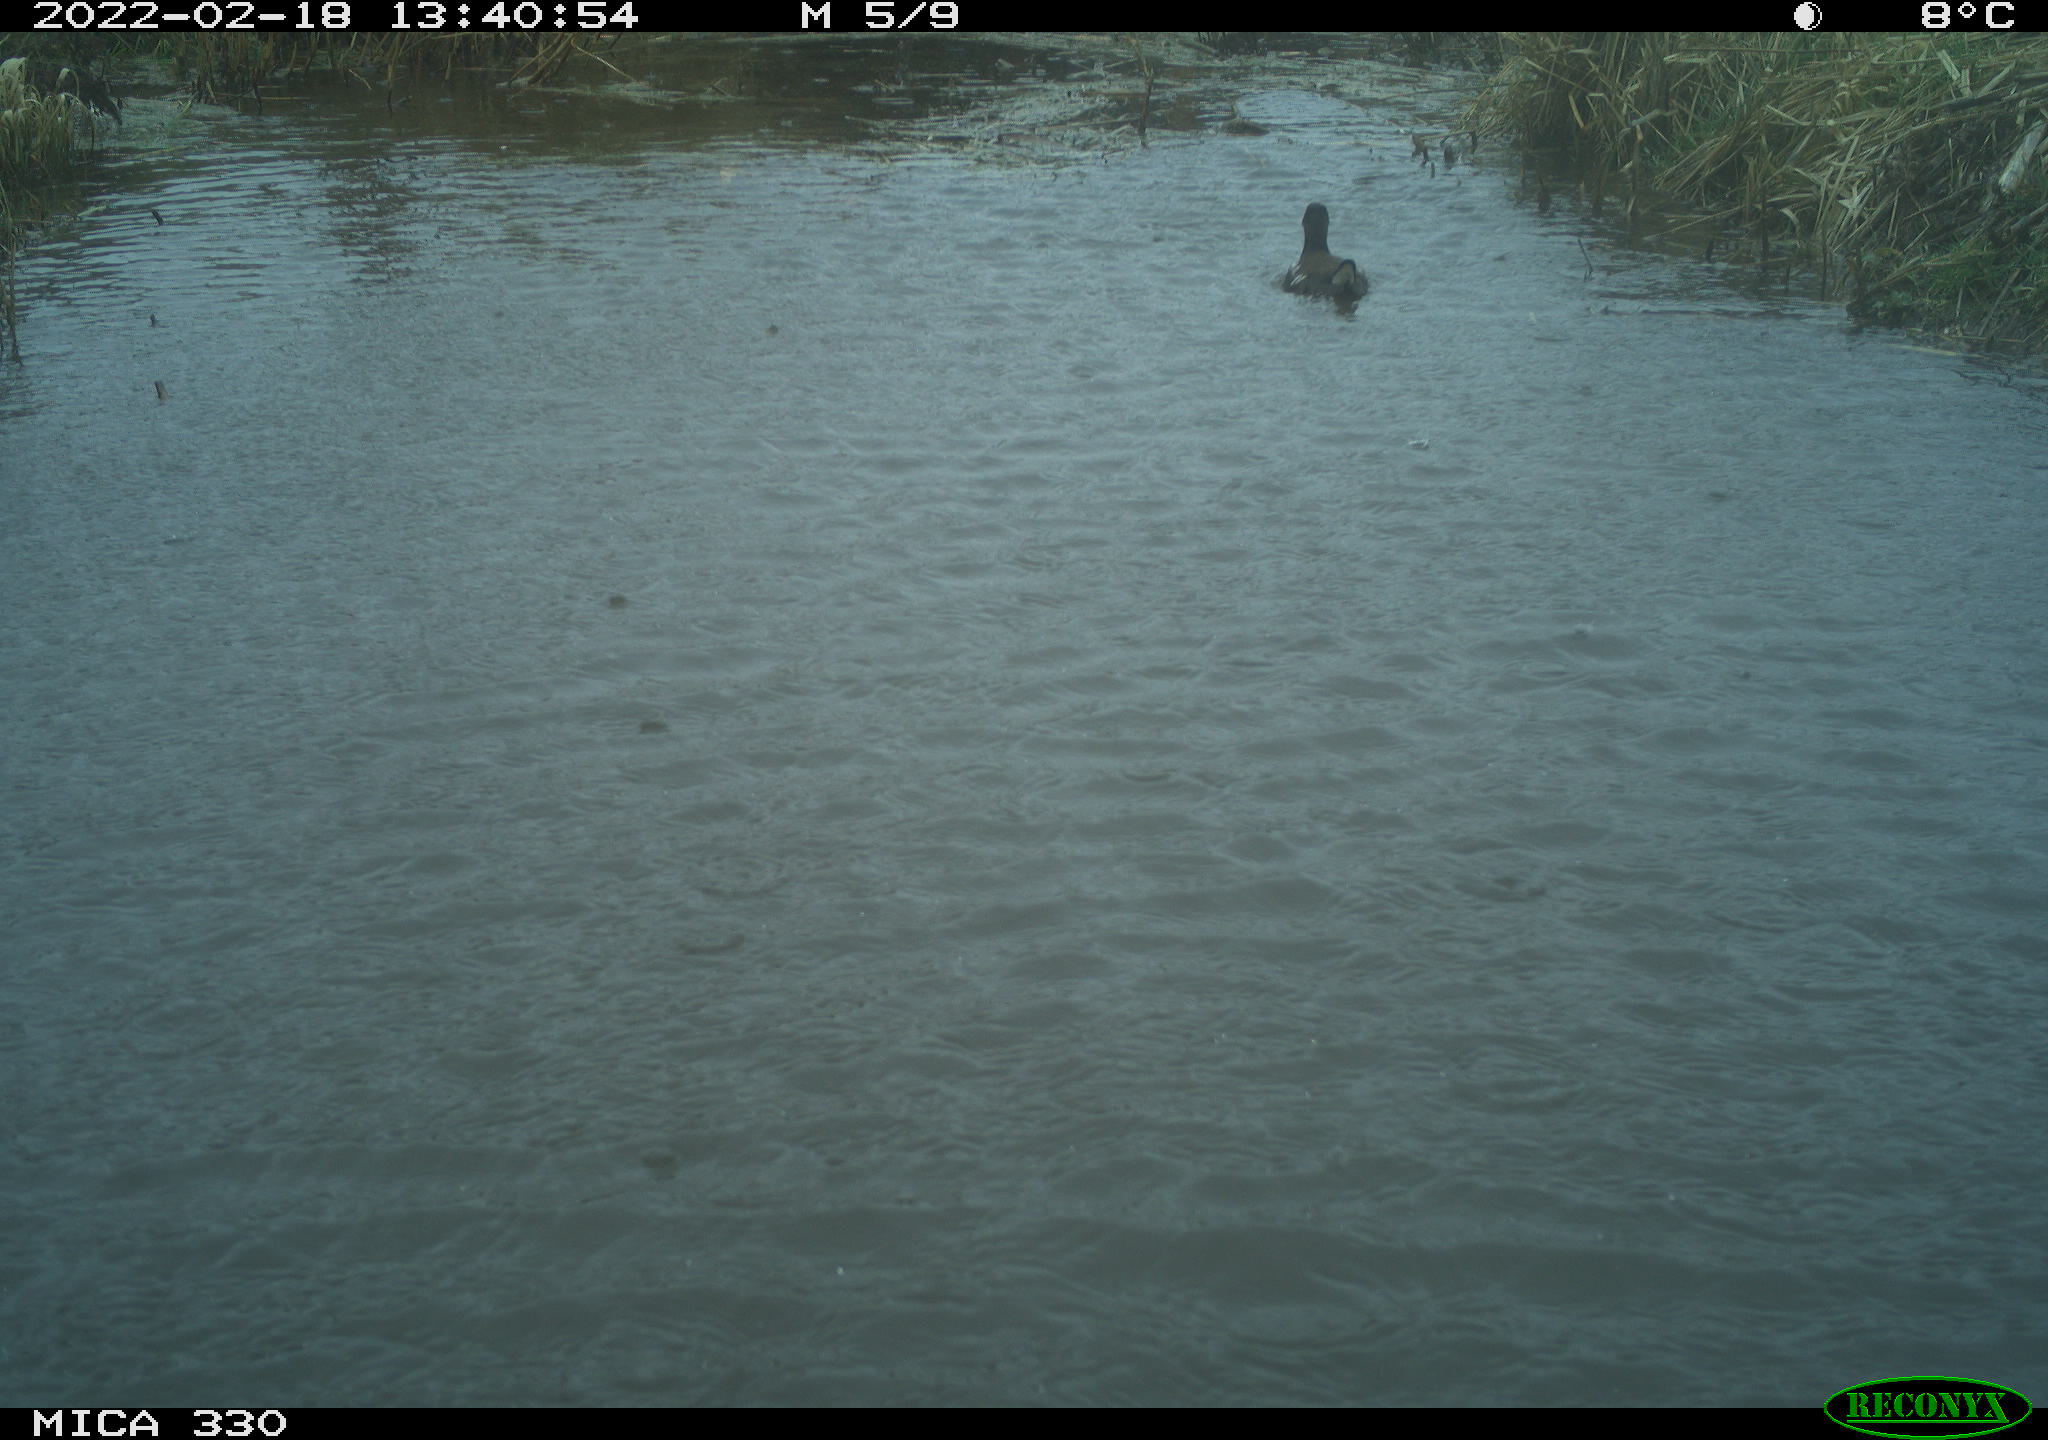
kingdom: Animalia
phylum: Chordata
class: Aves
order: Gruiformes
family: Rallidae
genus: Gallinula
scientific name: Gallinula chloropus
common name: Common moorhen
